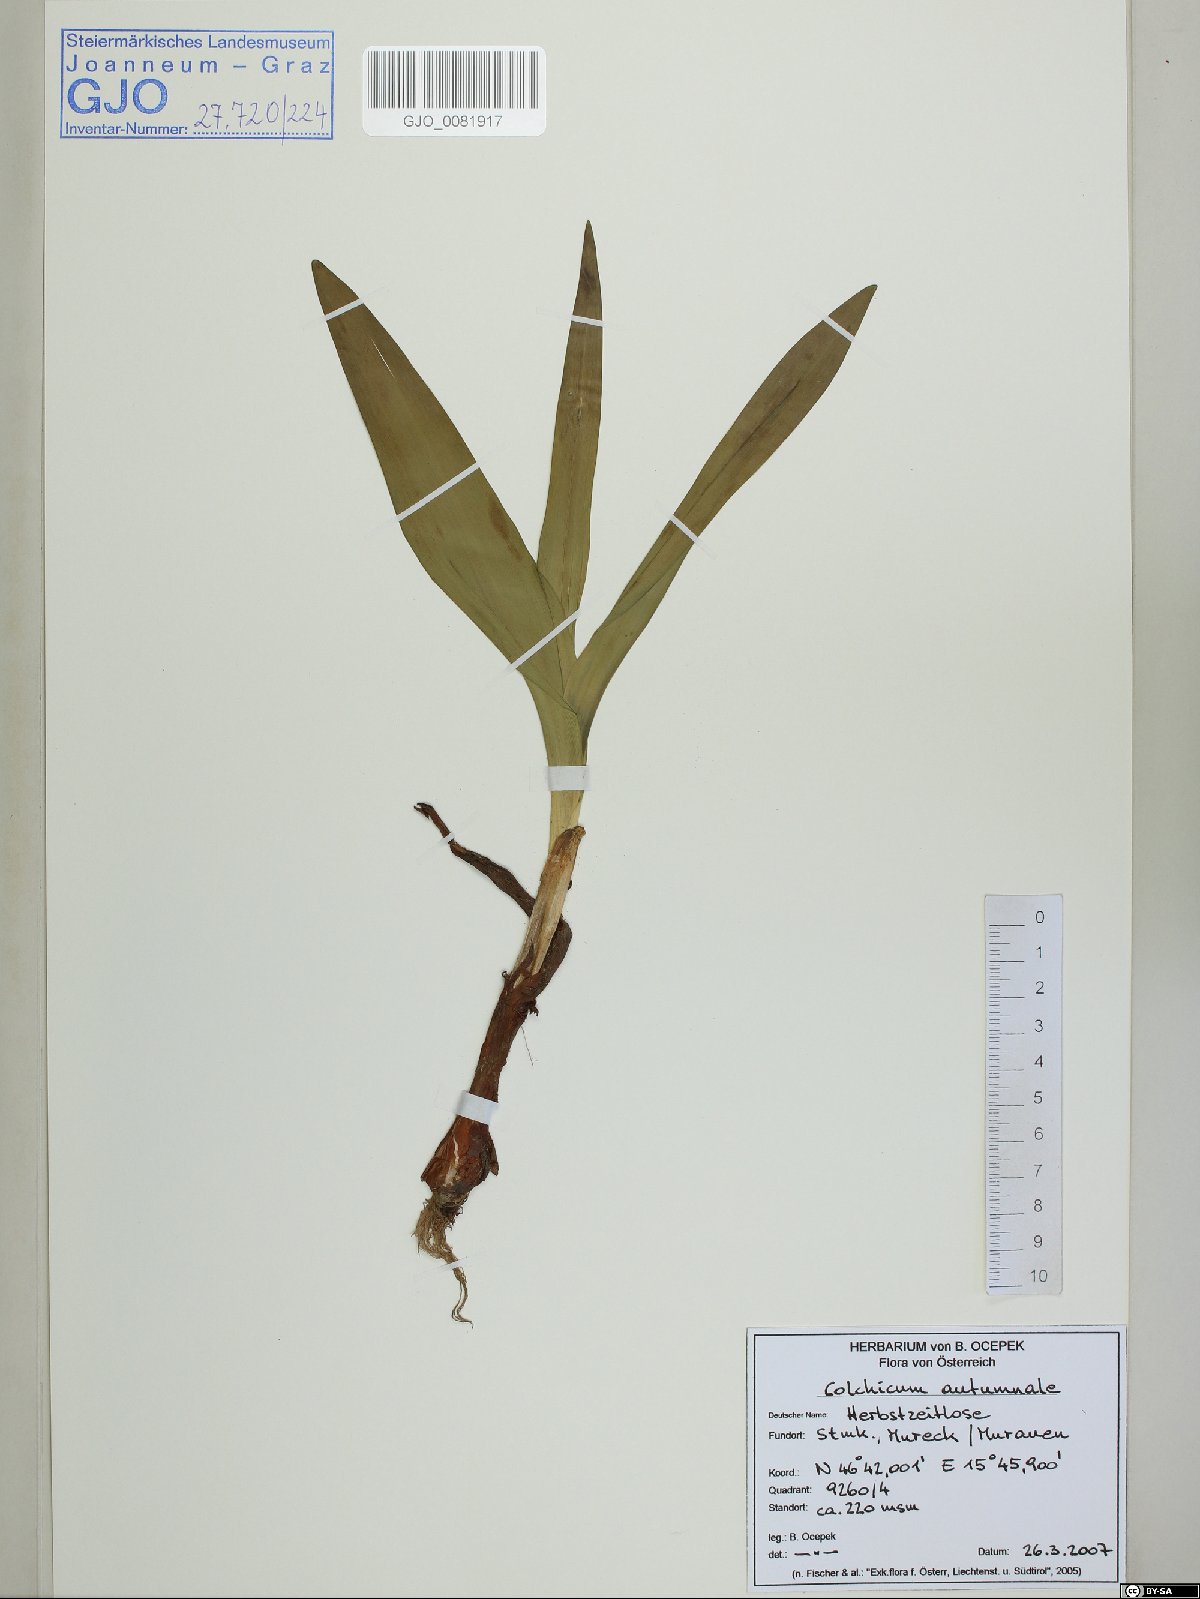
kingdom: Plantae
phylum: Tracheophyta
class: Liliopsida
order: Liliales
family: Colchicaceae
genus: Colchicum
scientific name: Colchicum autumnale
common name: Autumn crocus
